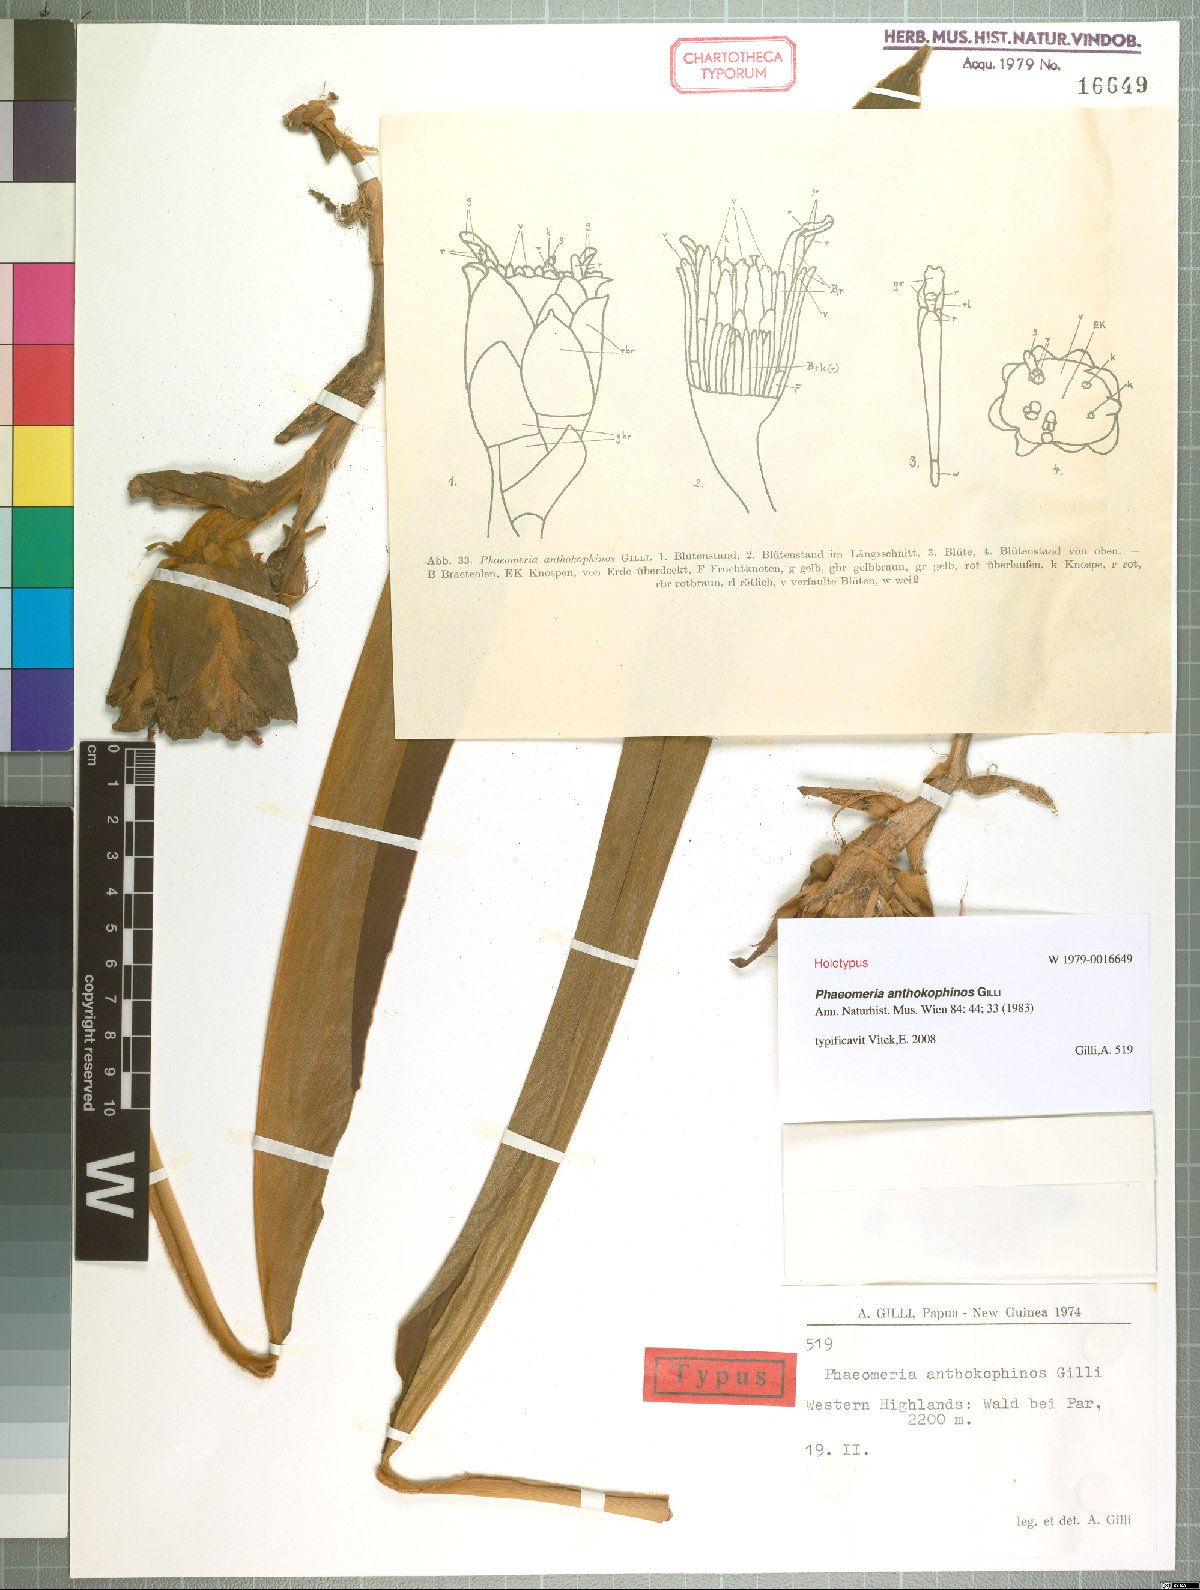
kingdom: Plantae
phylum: Tracheophyta
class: Liliopsida
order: Zingiberales
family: Zingiberaceae
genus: Etlingera
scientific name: Etlingera Phaeomeria anthokophinos
